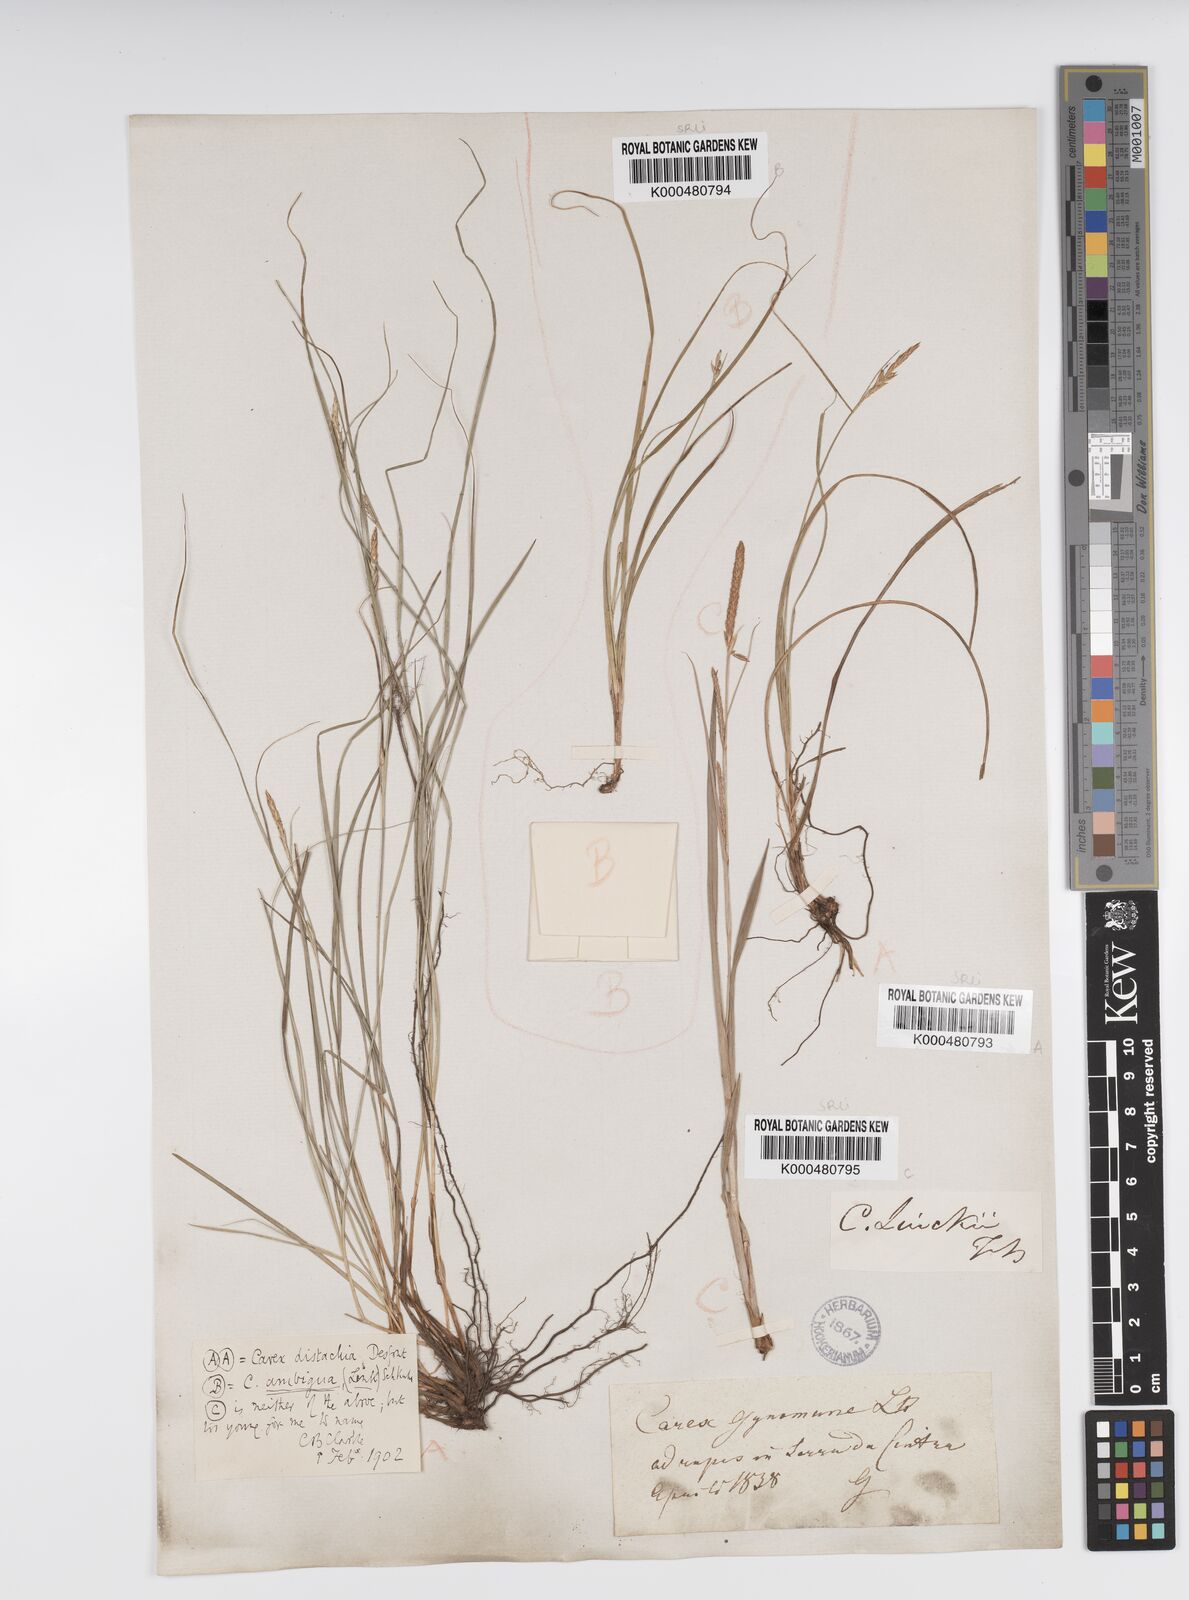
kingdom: Plantae
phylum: Tracheophyta
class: Liliopsida
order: Poales
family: Cyperaceae
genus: Carex
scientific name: Carex distachya
